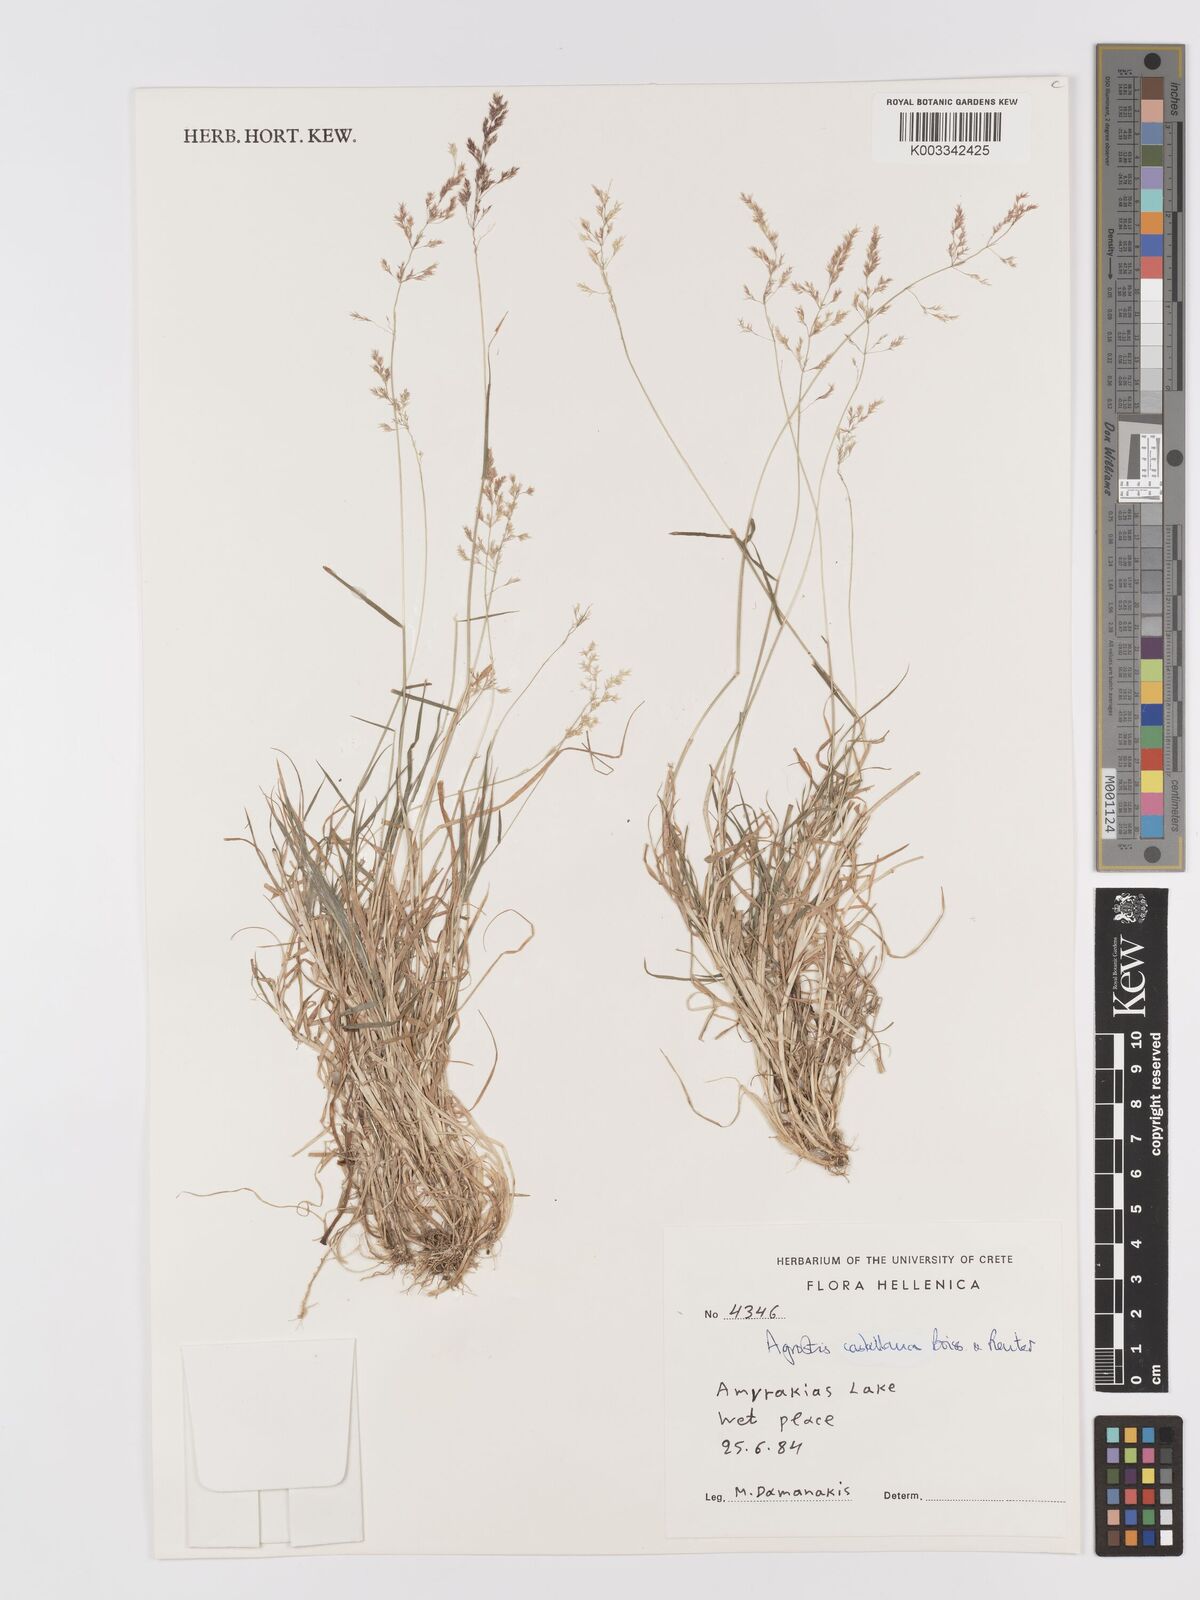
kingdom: Plantae
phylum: Tracheophyta
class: Liliopsida
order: Poales
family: Poaceae
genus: Agrostis
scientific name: Agrostis castellana
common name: Highland bent
